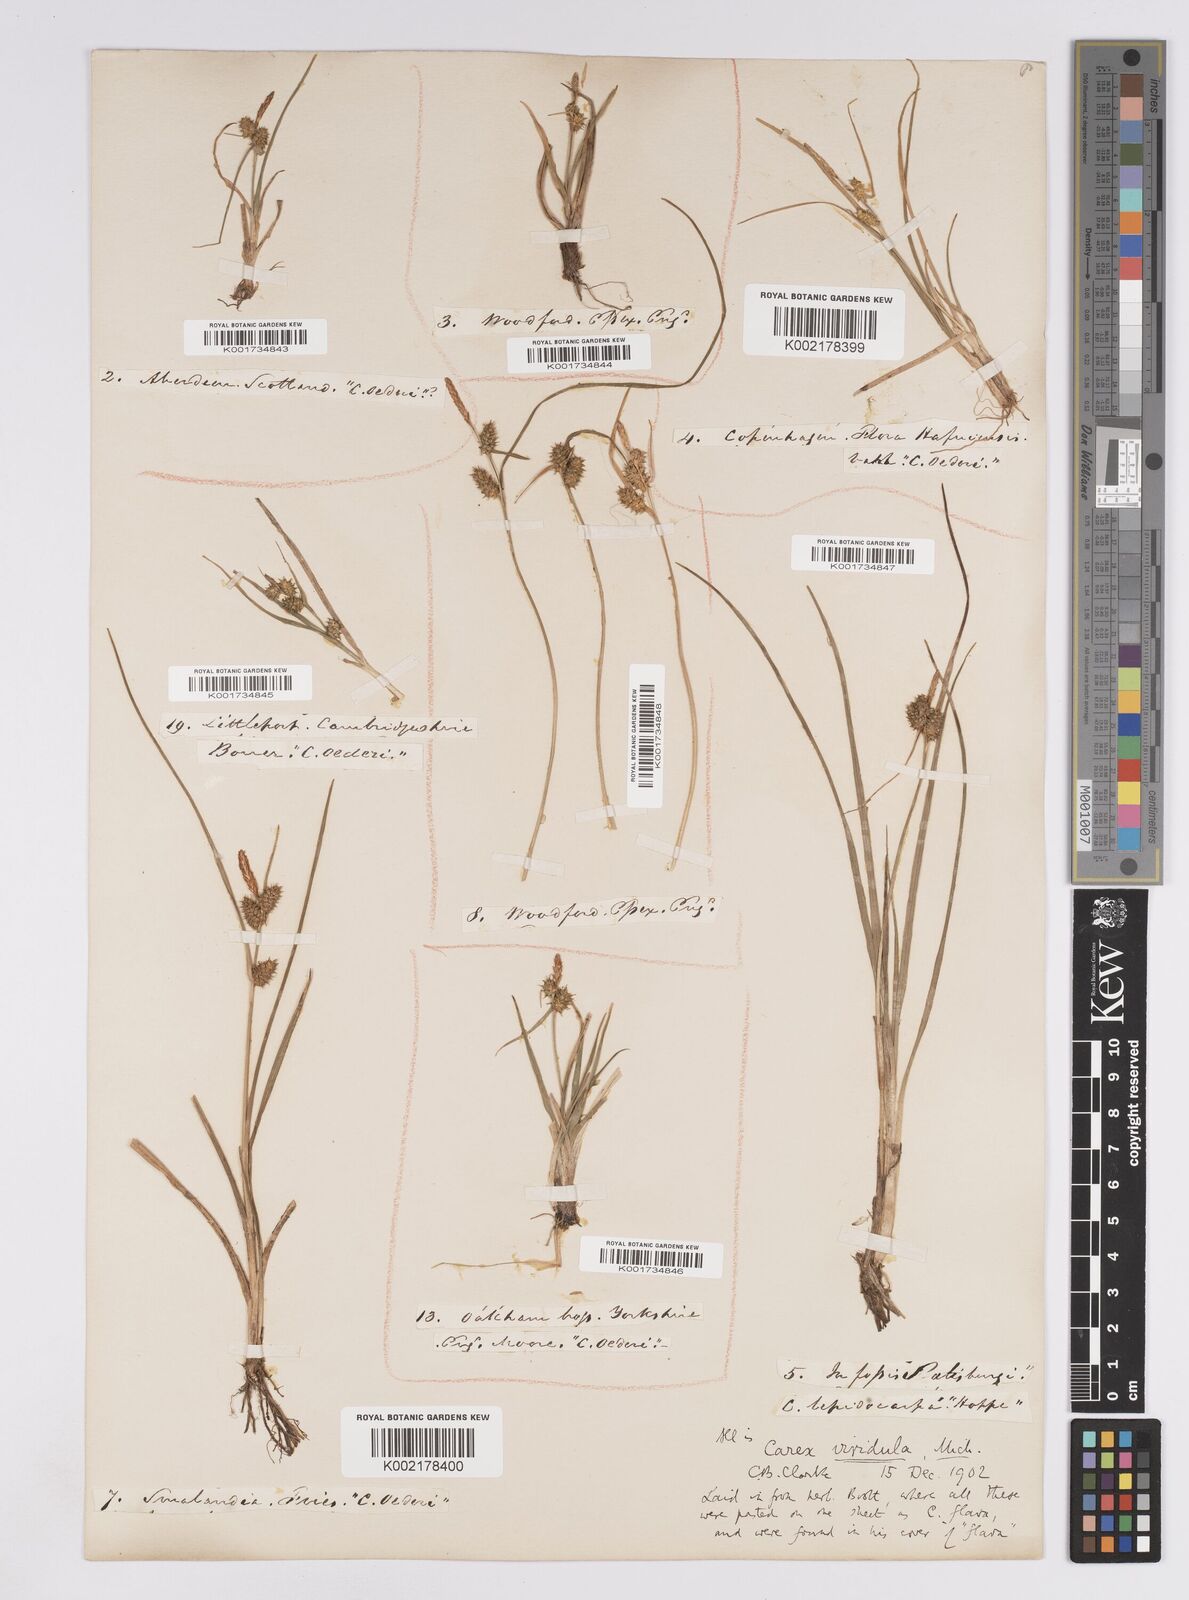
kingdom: Plantae
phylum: Tracheophyta
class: Liliopsida
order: Poales
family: Cyperaceae
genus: Carex
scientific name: Carex demissa
